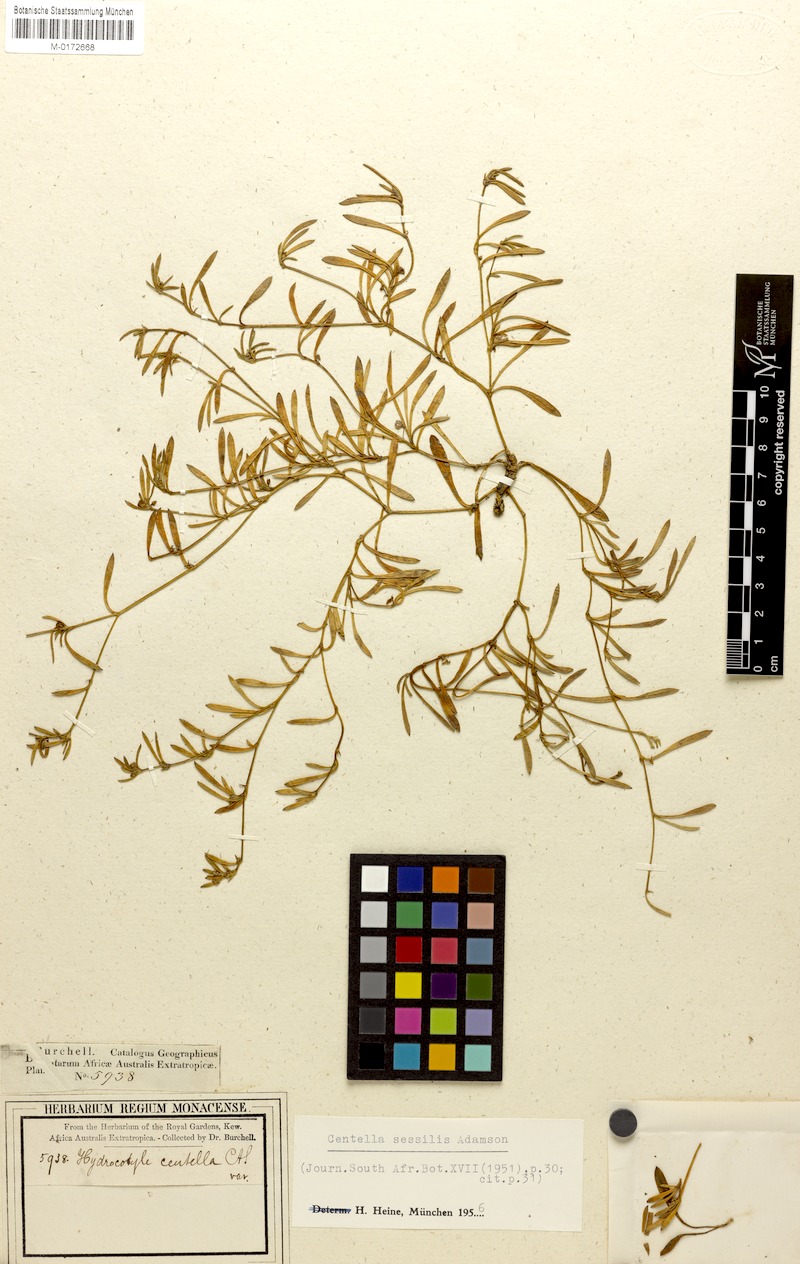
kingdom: Plantae
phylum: Tracheophyta
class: Magnoliopsida
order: Apiales
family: Apiaceae
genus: Centella
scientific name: Centella sessilis
